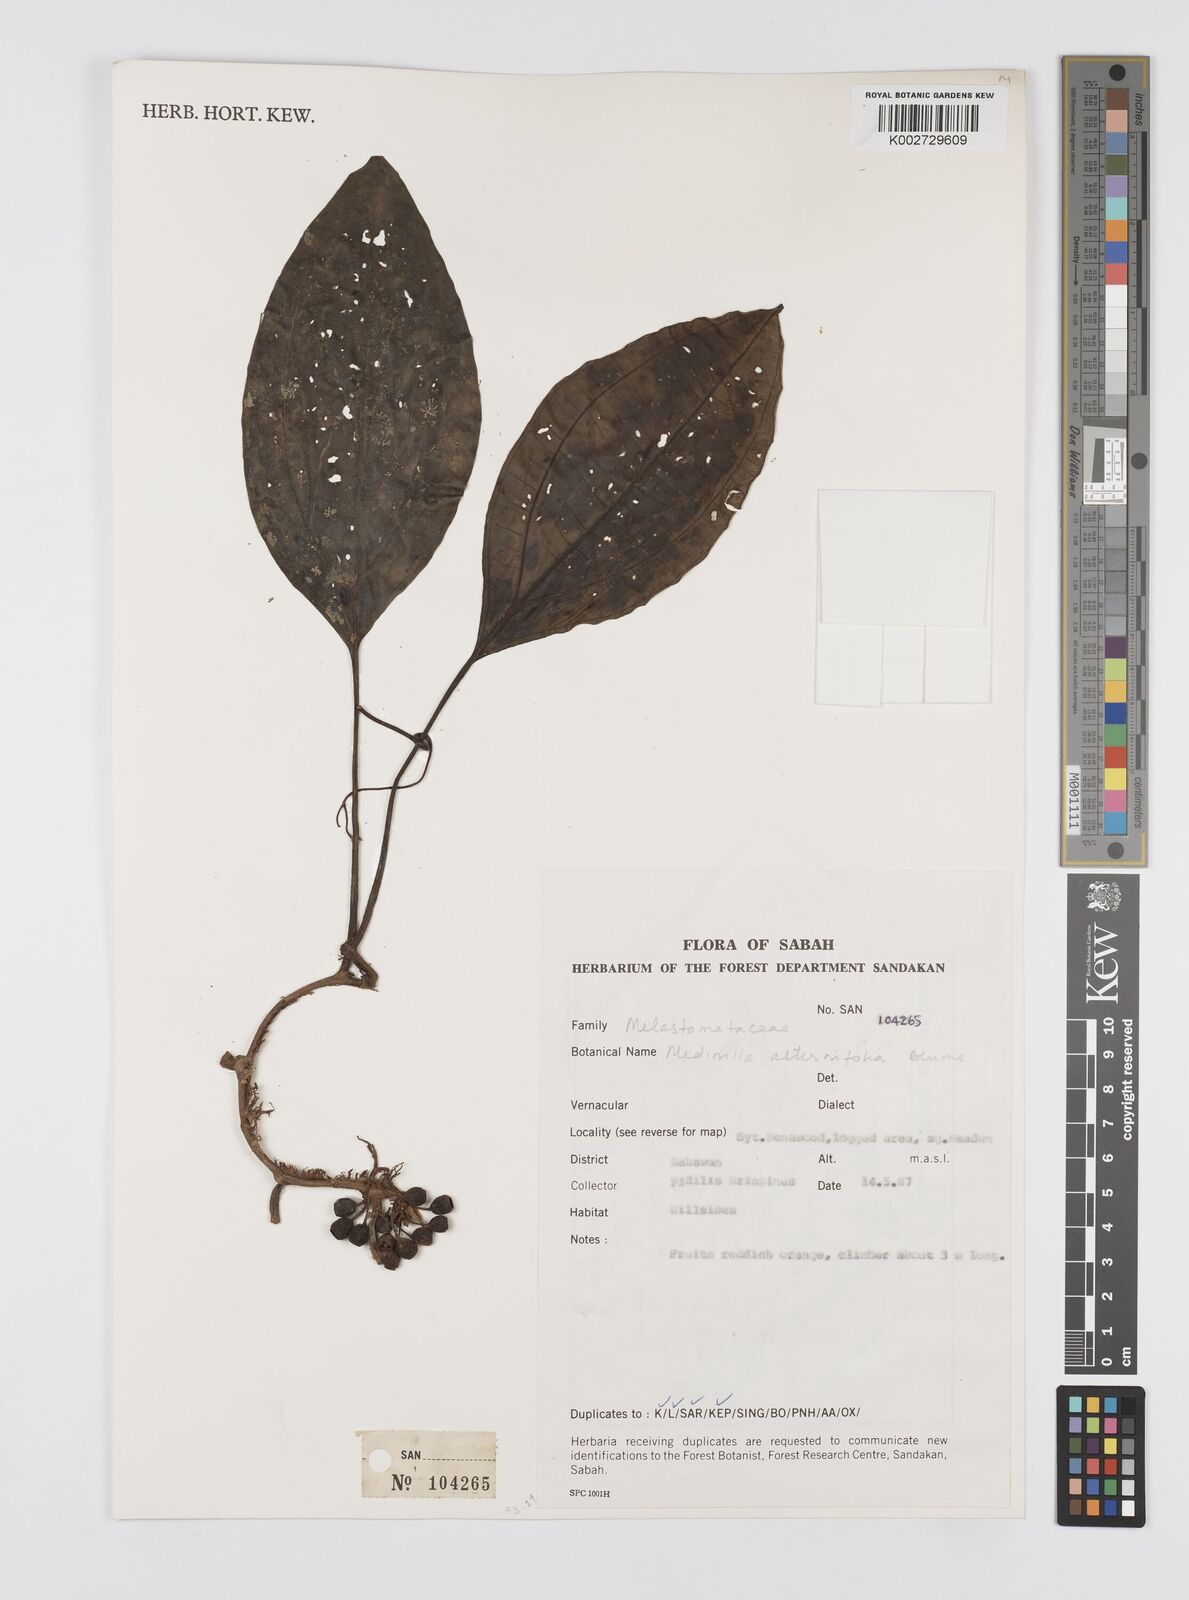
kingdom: Plantae
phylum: Tracheophyta
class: Magnoliopsida
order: Myrtales
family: Melastomataceae
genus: Heteroblemma
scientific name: Heteroblemma alternifolium
